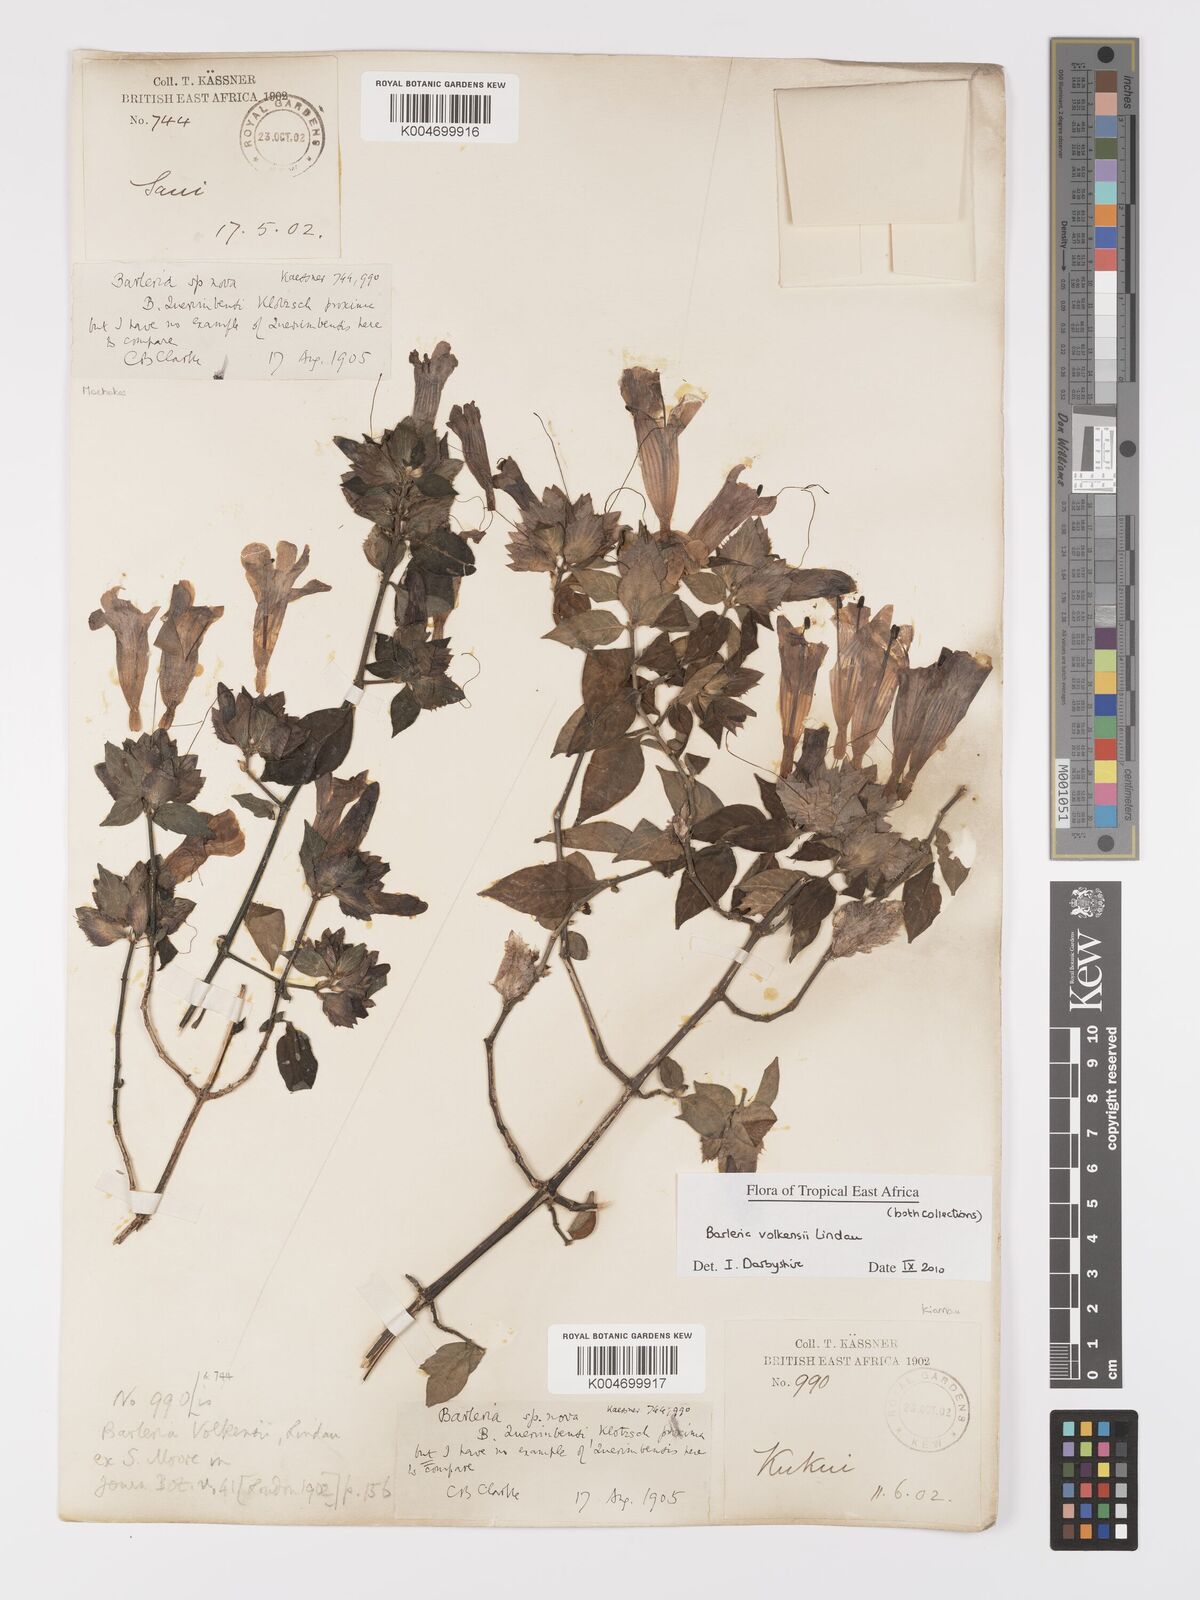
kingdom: Plantae
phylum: Tracheophyta
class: Magnoliopsida
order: Lamiales
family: Acanthaceae
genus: Barleria
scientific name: Barleria volkensii
